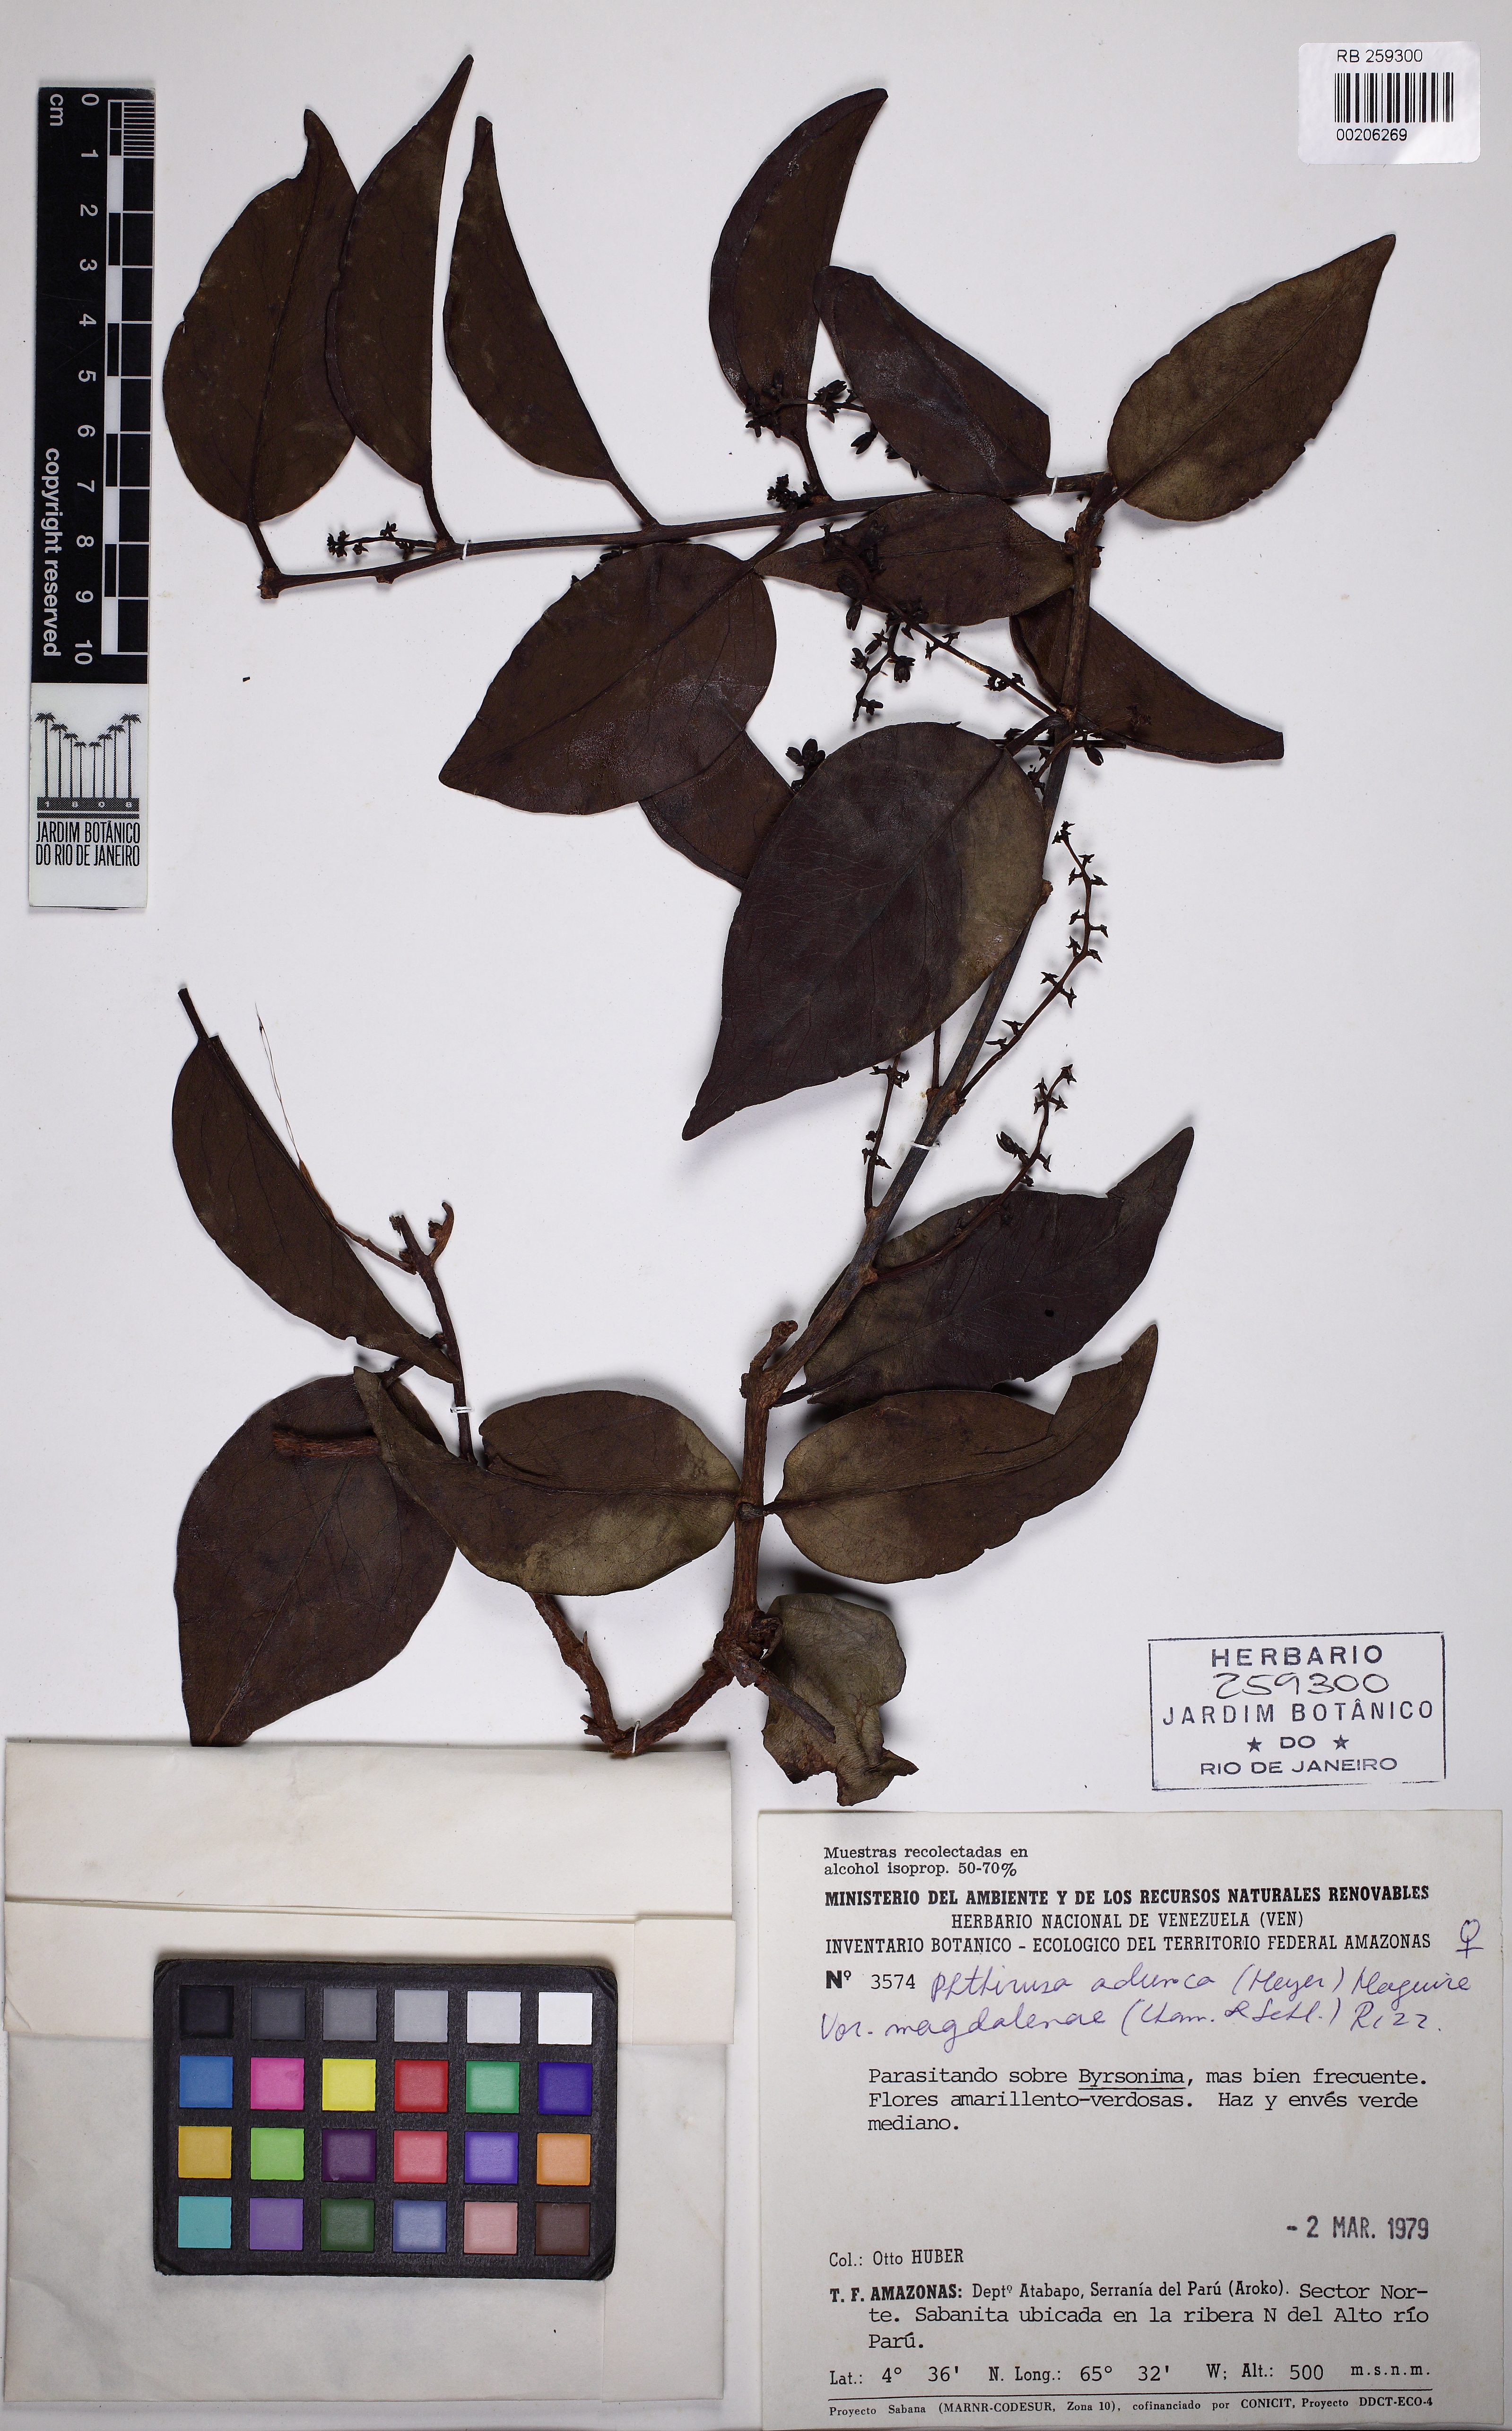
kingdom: Plantae
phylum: Tracheophyta
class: Magnoliopsida
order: Santalales
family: Loranthaceae
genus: Passovia
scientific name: Passovia pedunculata
